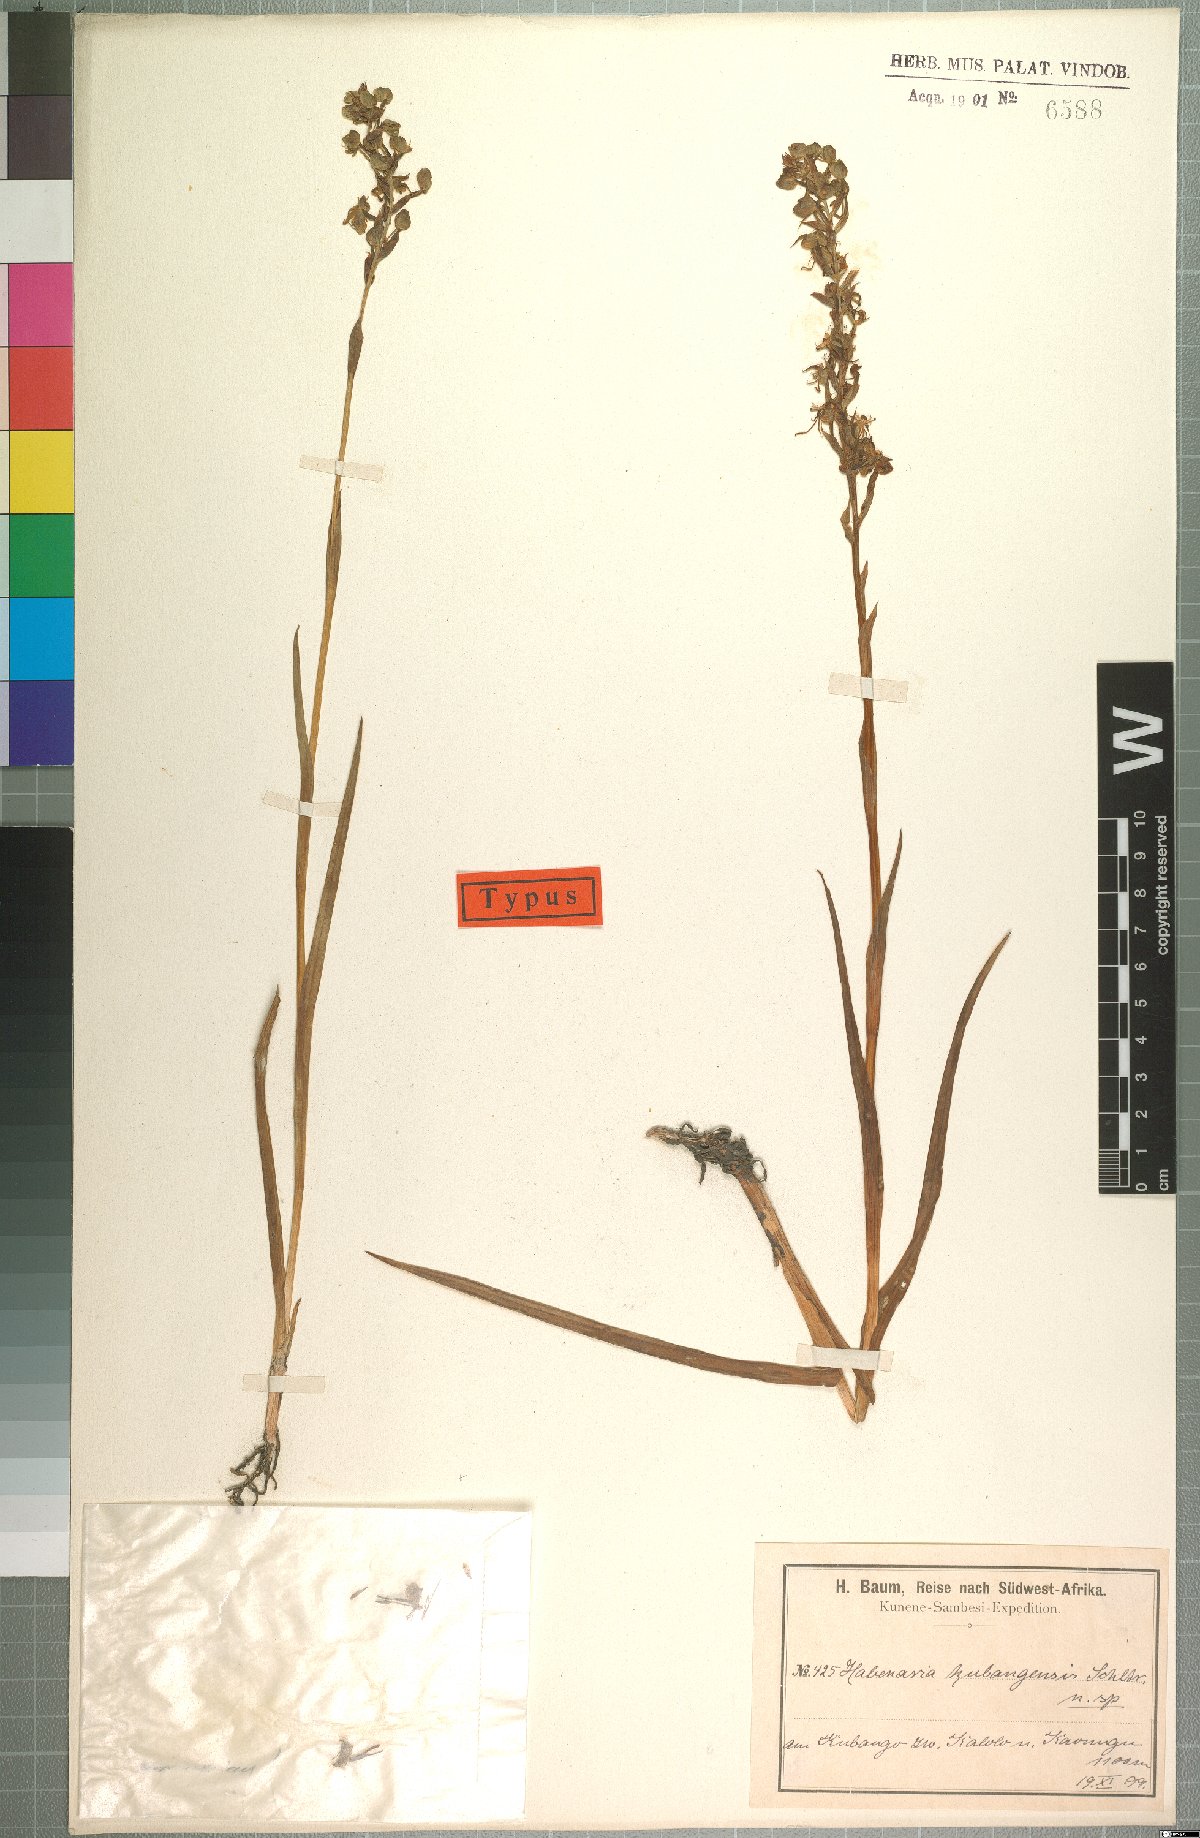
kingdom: Plantae
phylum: Tracheophyta
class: Liliopsida
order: Asparagales
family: Orchidaceae
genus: Habenaria
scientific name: Habenaria huillensis
